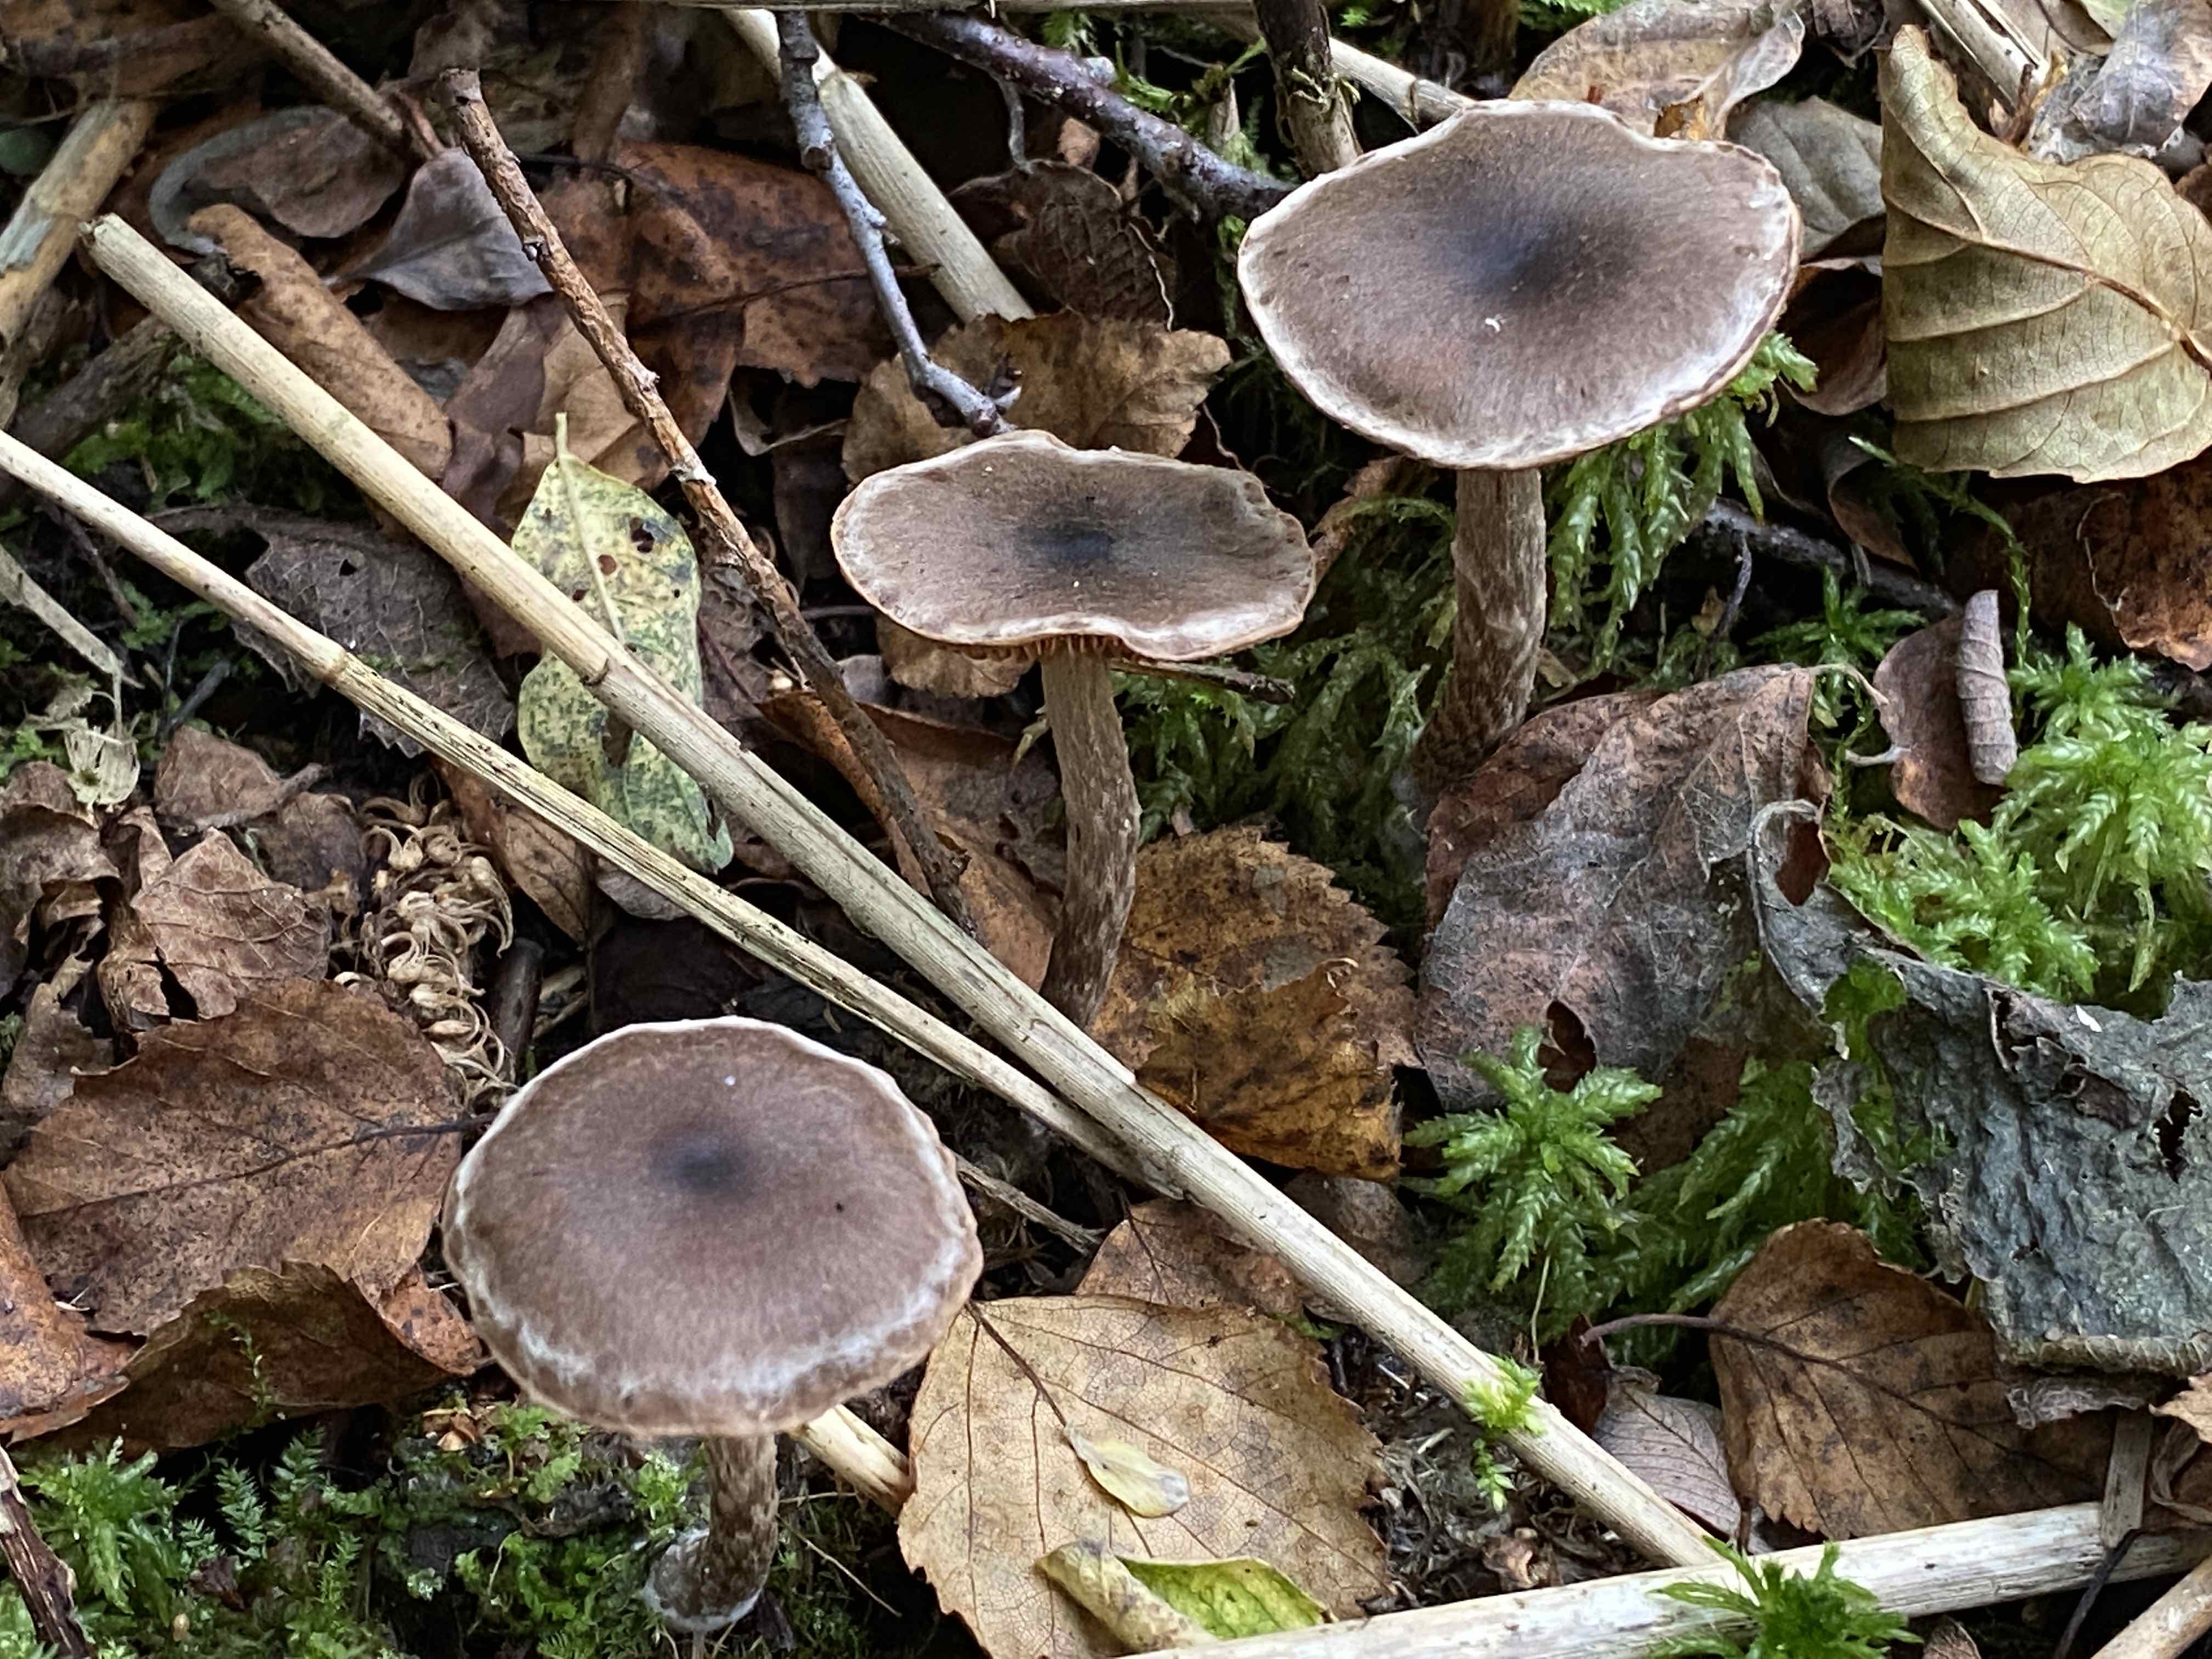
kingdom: Fungi
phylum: Basidiomycota
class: Agaricomycetes
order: Agaricales
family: Cortinariaceae
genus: Cortinarius
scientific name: Cortinarius
